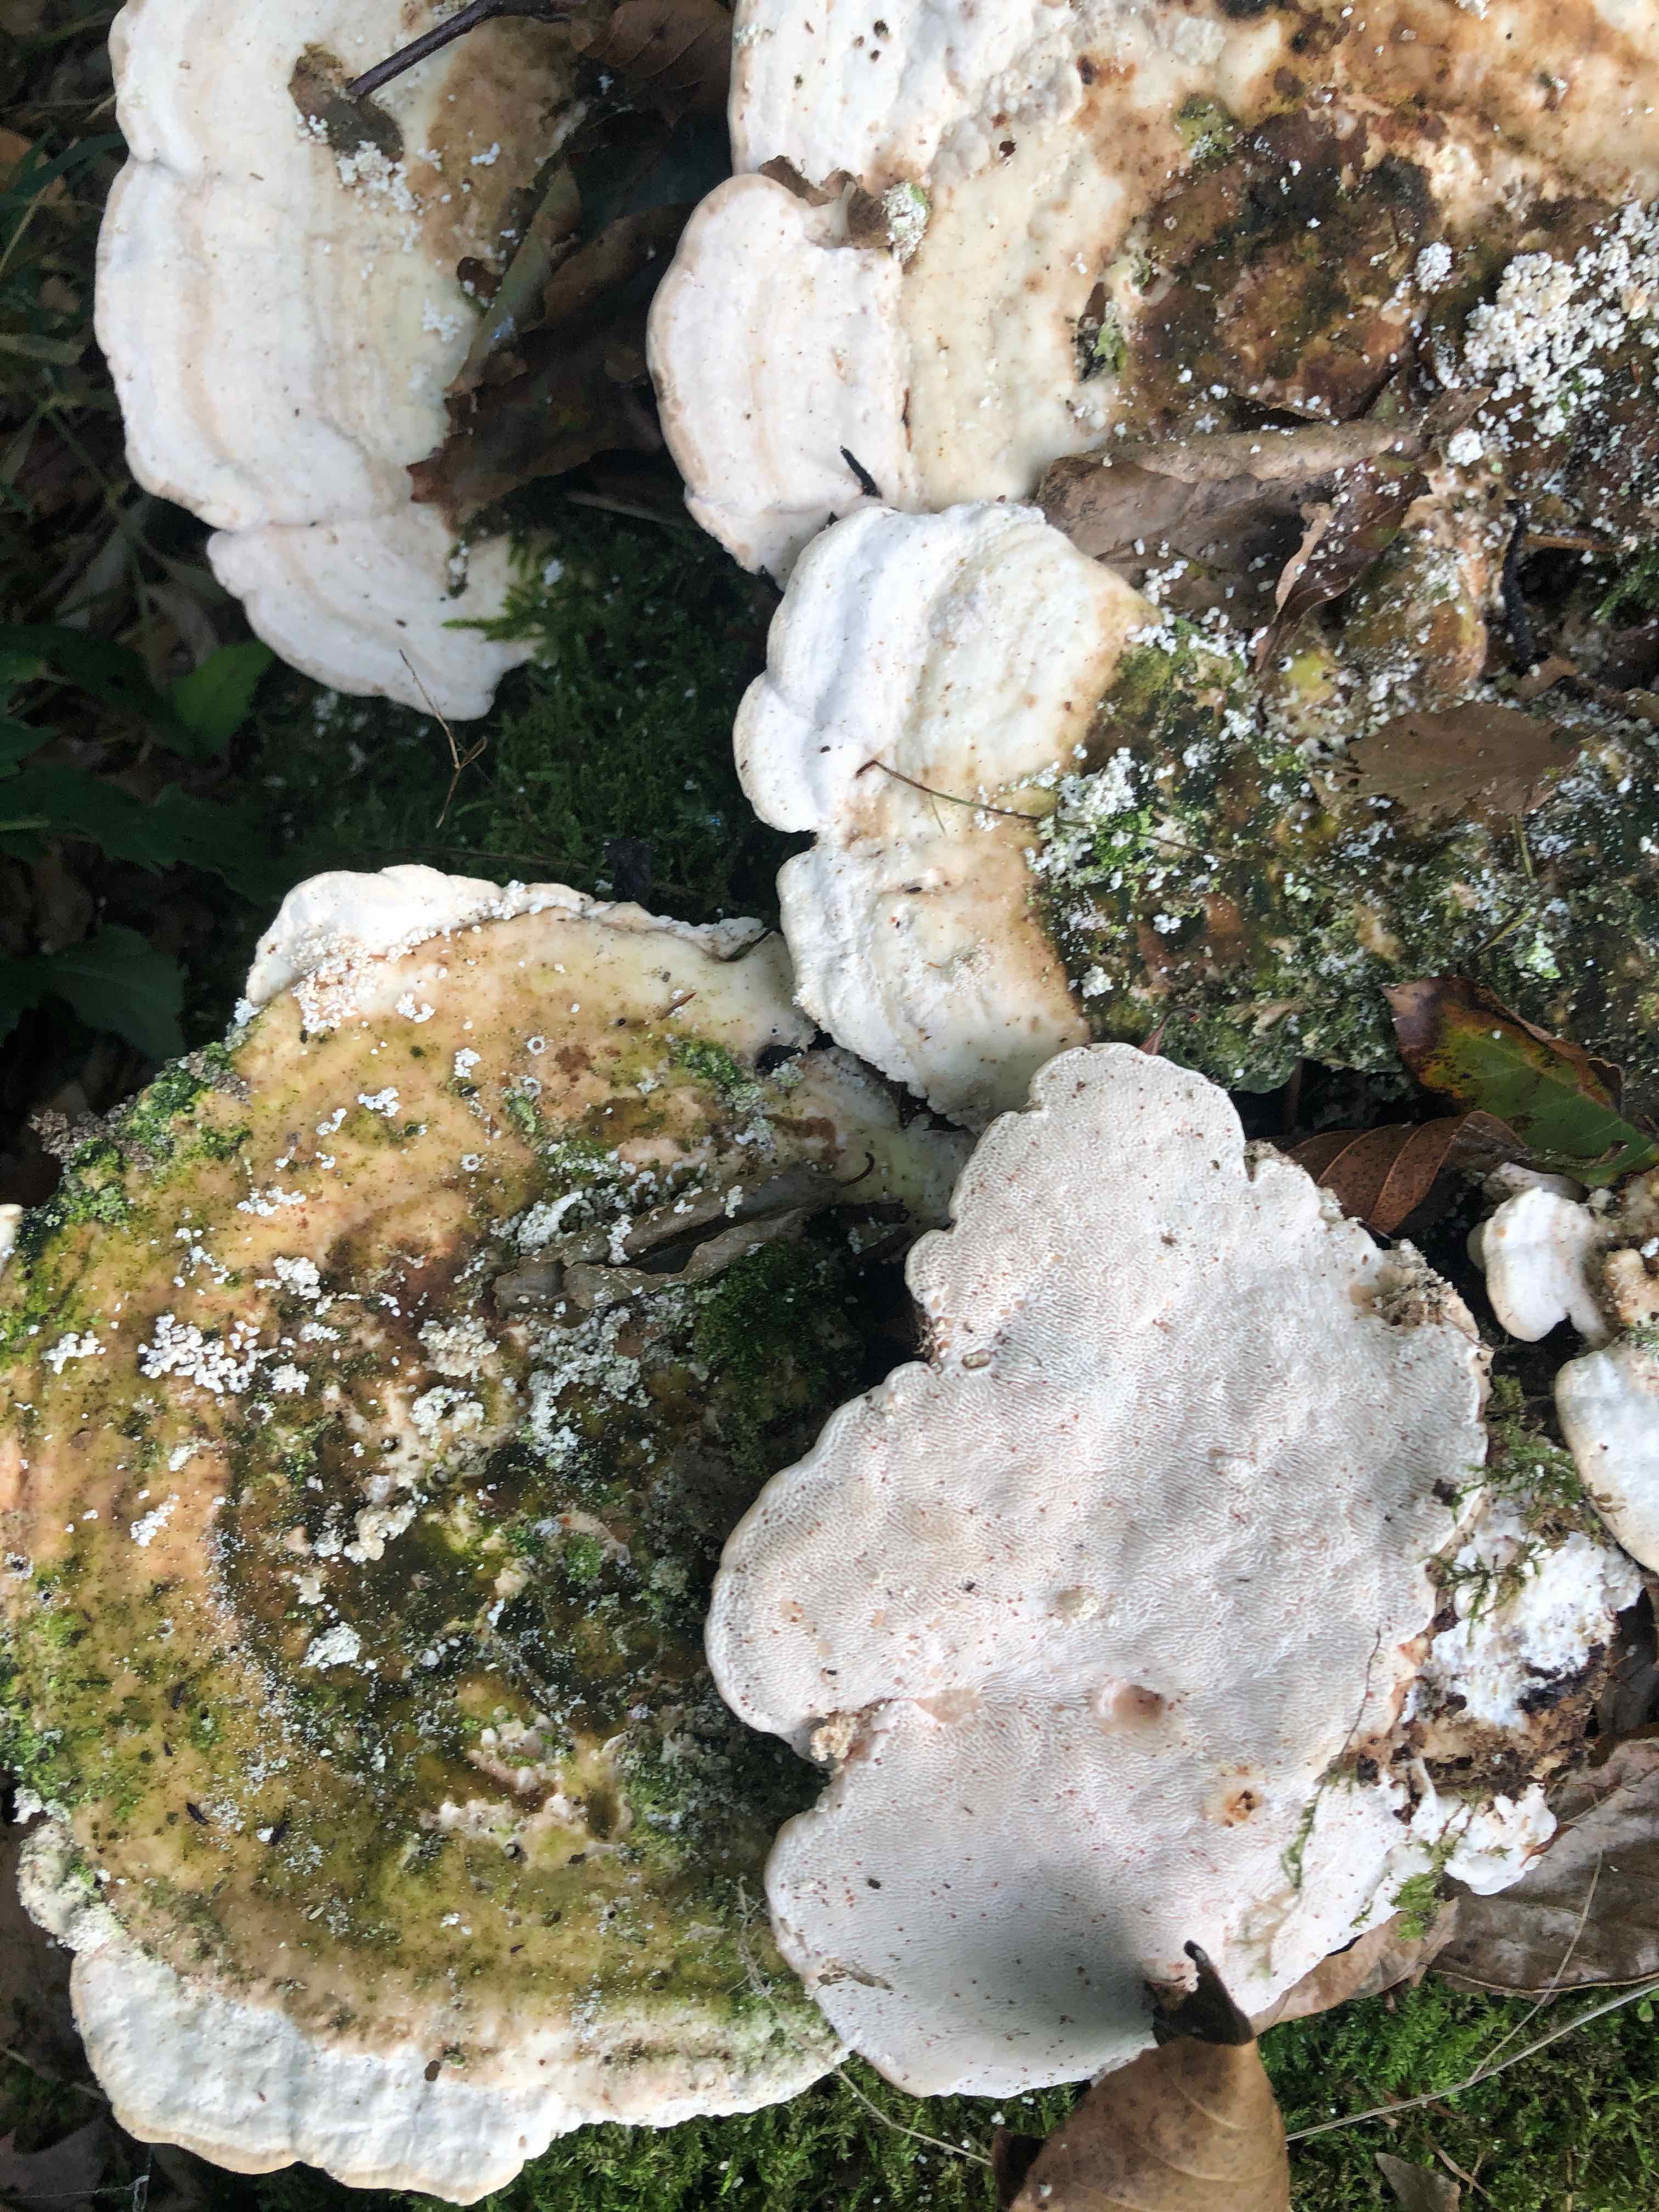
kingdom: Fungi
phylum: Basidiomycota
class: Agaricomycetes
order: Polyporales
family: Polyporaceae
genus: Trametes
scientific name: Trametes gibbosa
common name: puklet læderporesvamp
